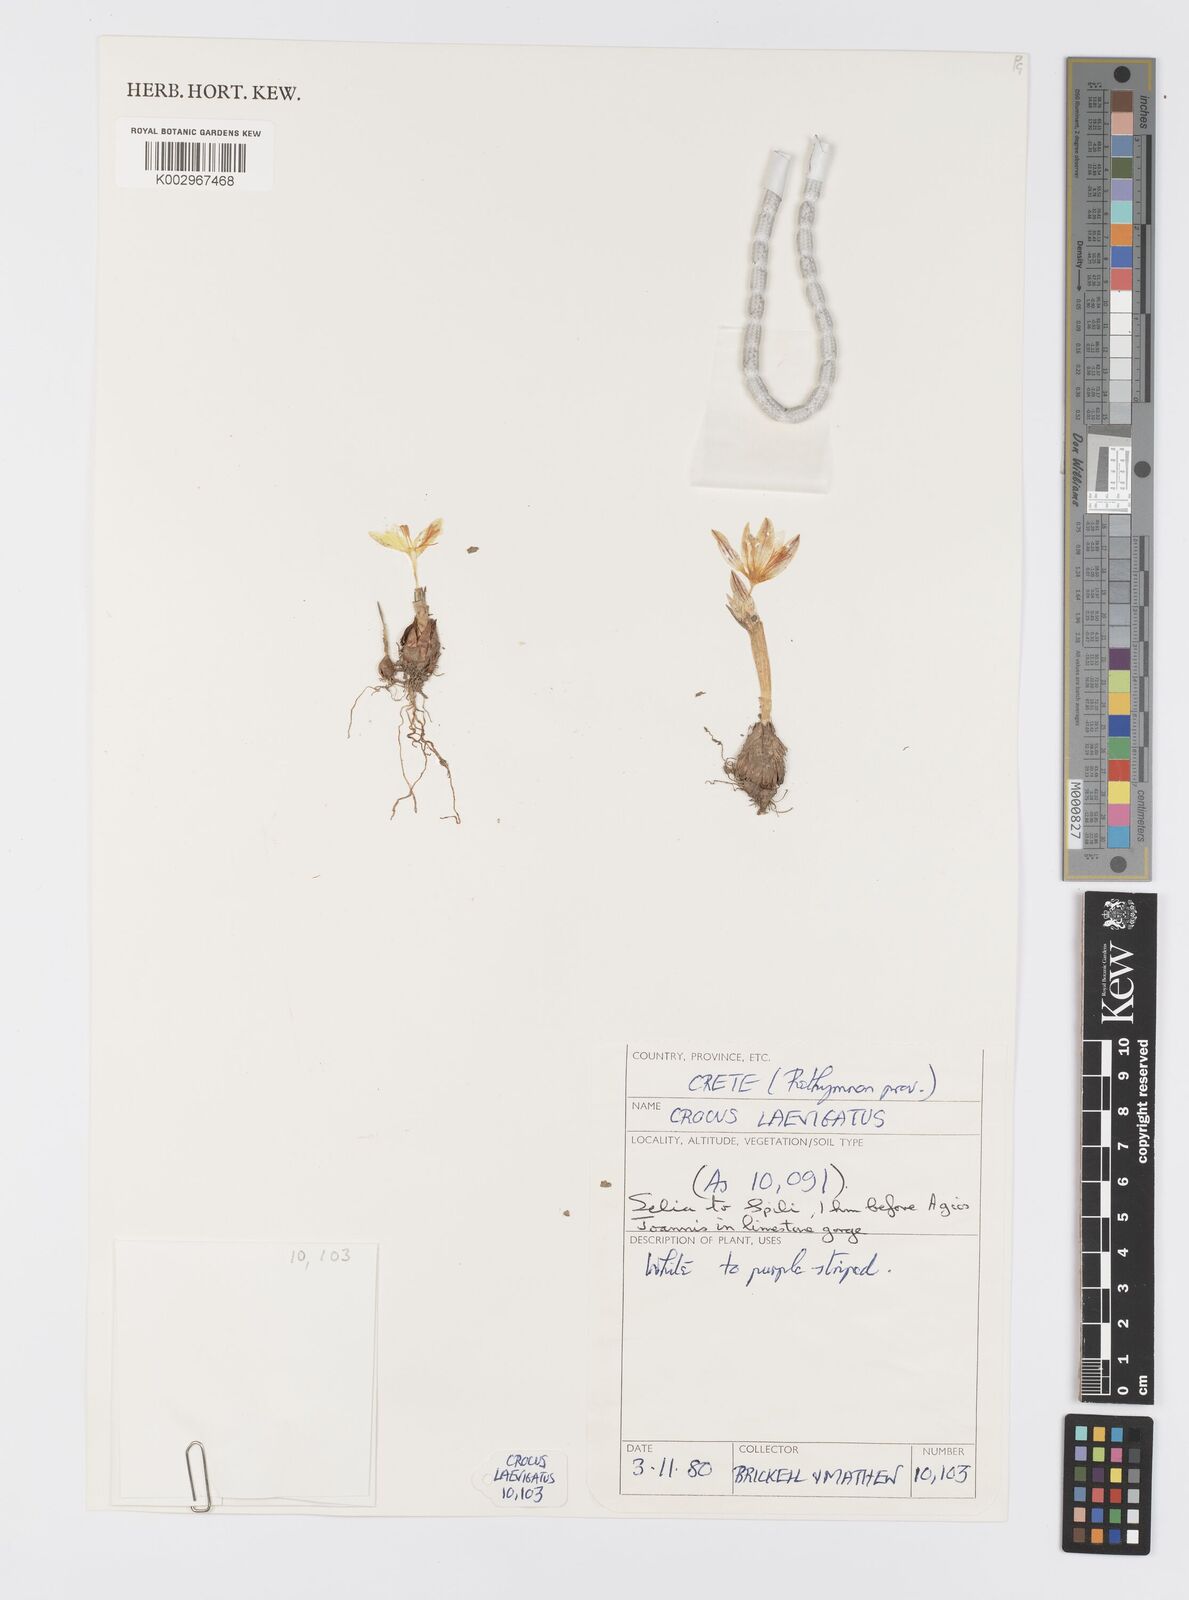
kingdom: Plantae
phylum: Tracheophyta
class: Liliopsida
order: Asparagales
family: Iridaceae
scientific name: Iridaceae
